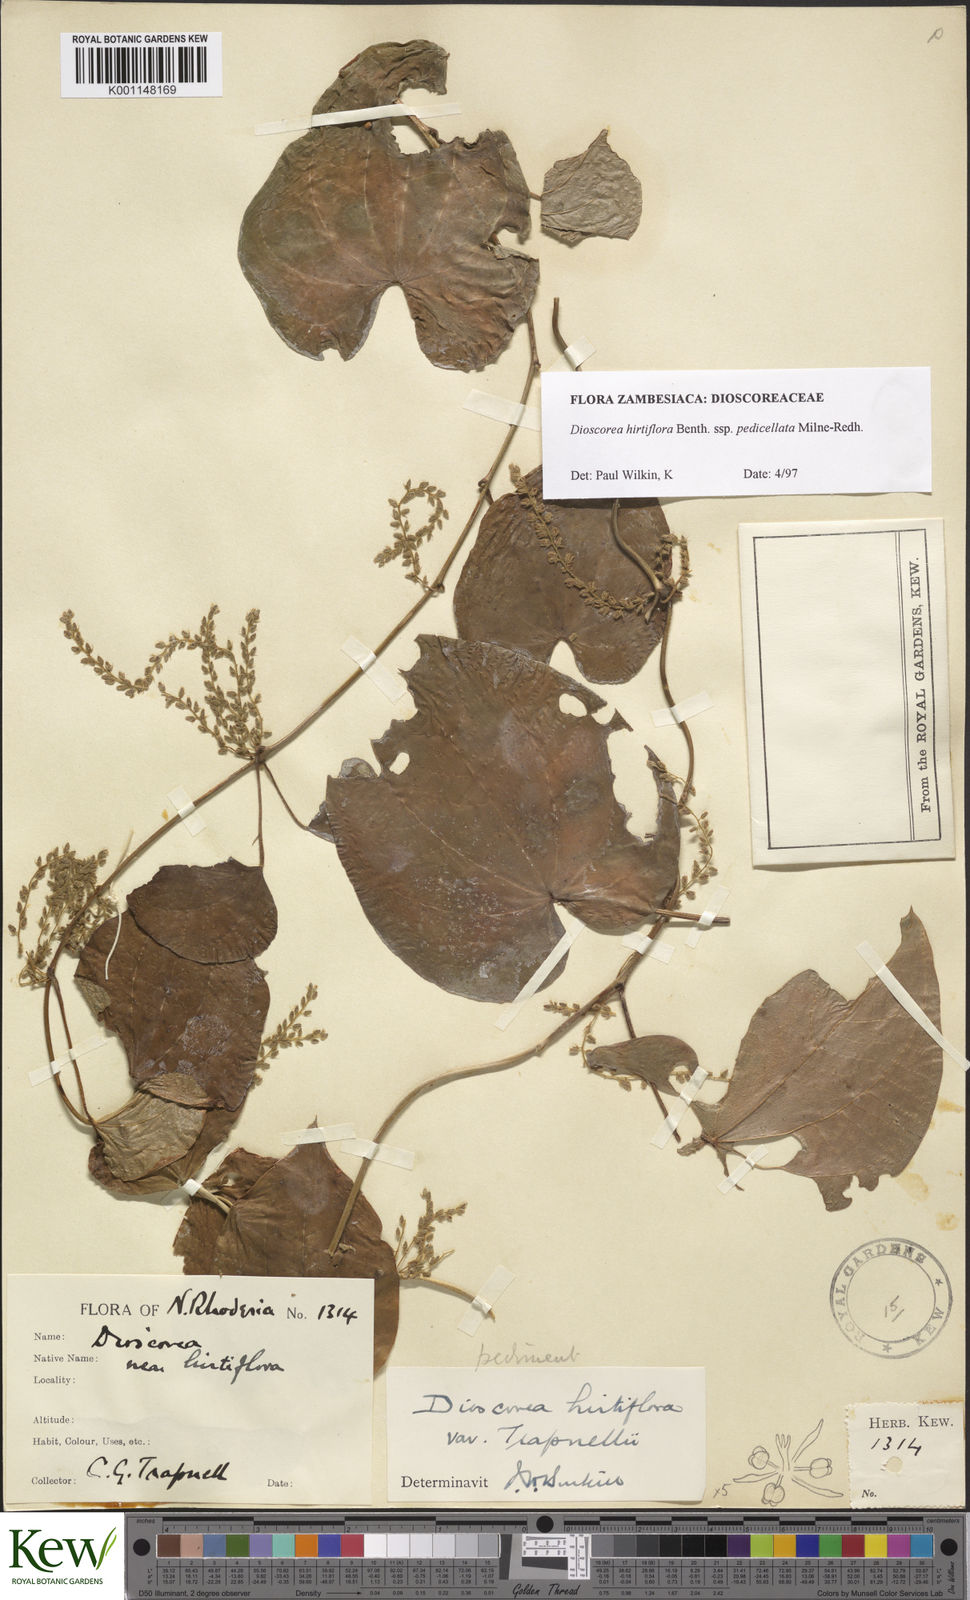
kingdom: Plantae
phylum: Tracheophyta
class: Liliopsida
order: Dioscoreales
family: Dioscoreaceae
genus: Dioscorea
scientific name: Dioscorea hirtiflora
